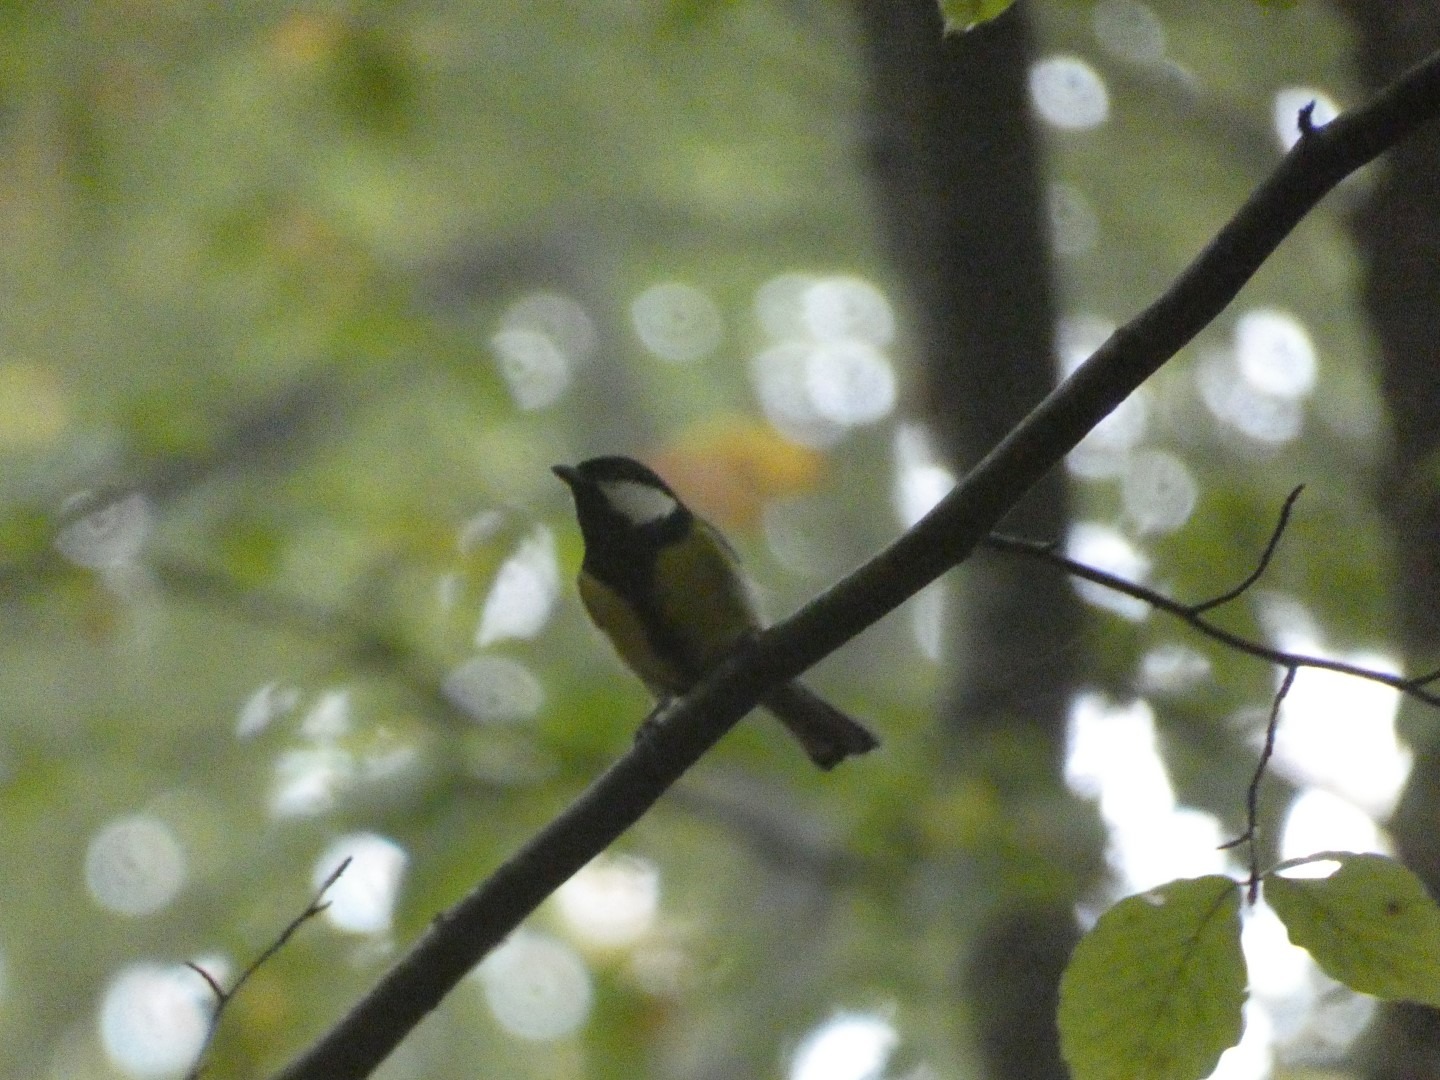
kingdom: Animalia
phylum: Chordata
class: Aves
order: Passeriformes
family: Paridae
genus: Parus
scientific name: Parus major
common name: Musvit
